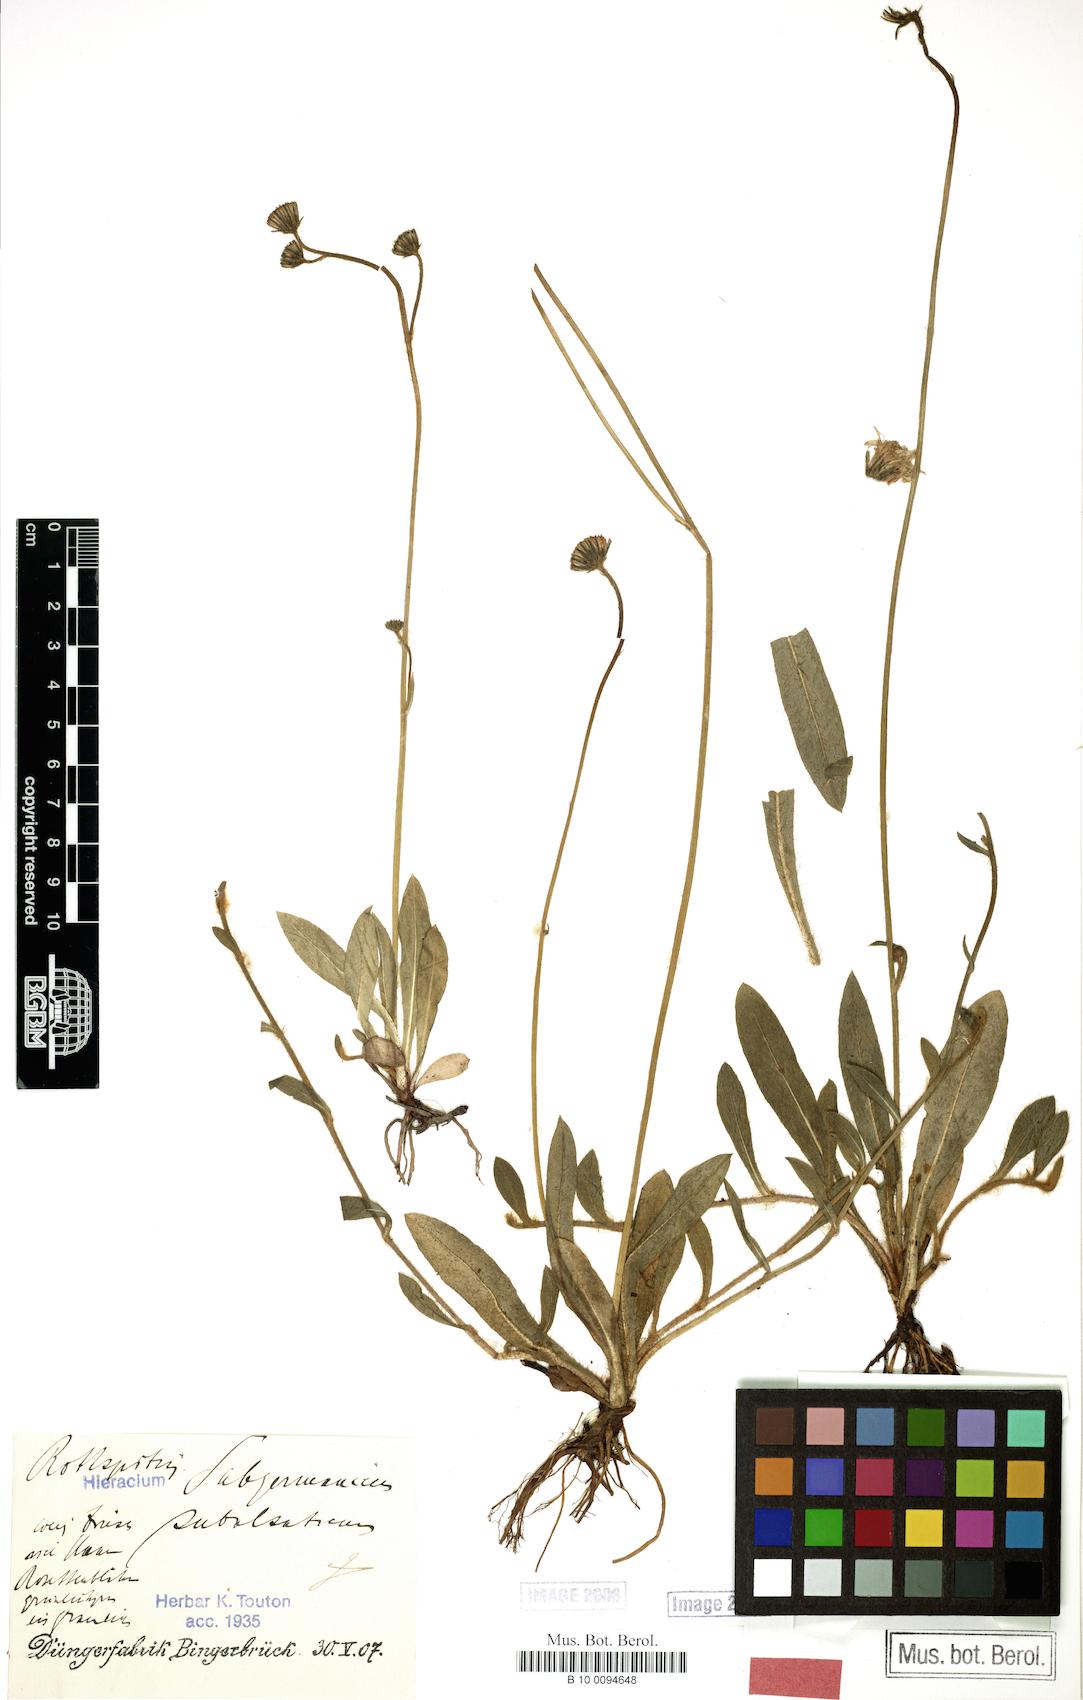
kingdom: Plantae
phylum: Tracheophyta
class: Magnoliopsida
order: Asterales
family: Asteraceae
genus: Pilosella
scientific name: Pilosella pilosellina
